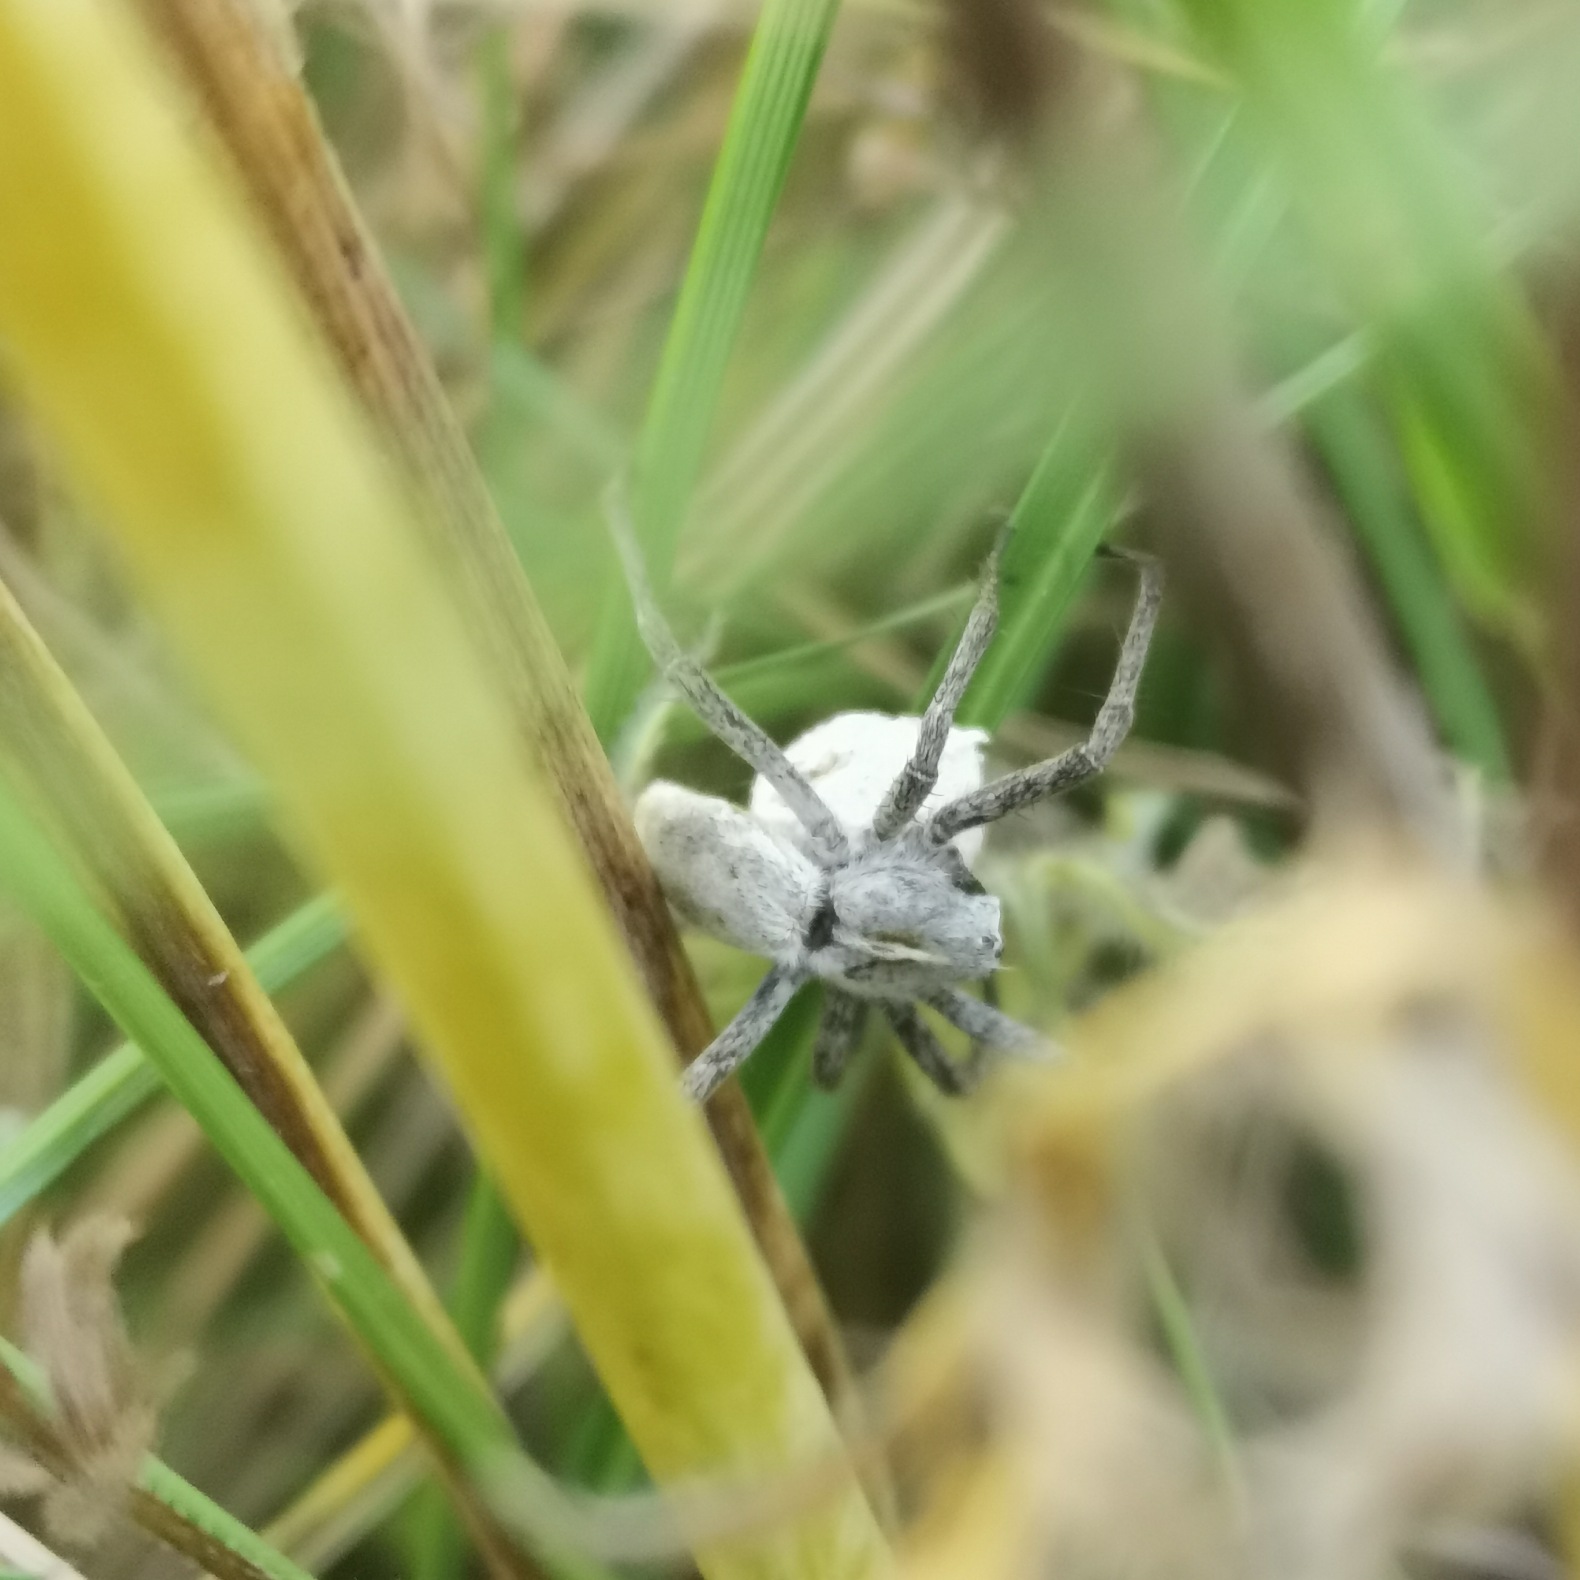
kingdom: Animalia
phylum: Arthropoda
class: Arachnida
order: Araneae
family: Pisauridae
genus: Pisaura
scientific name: Pisaura mirabilis
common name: Almindelig rovedderkop
